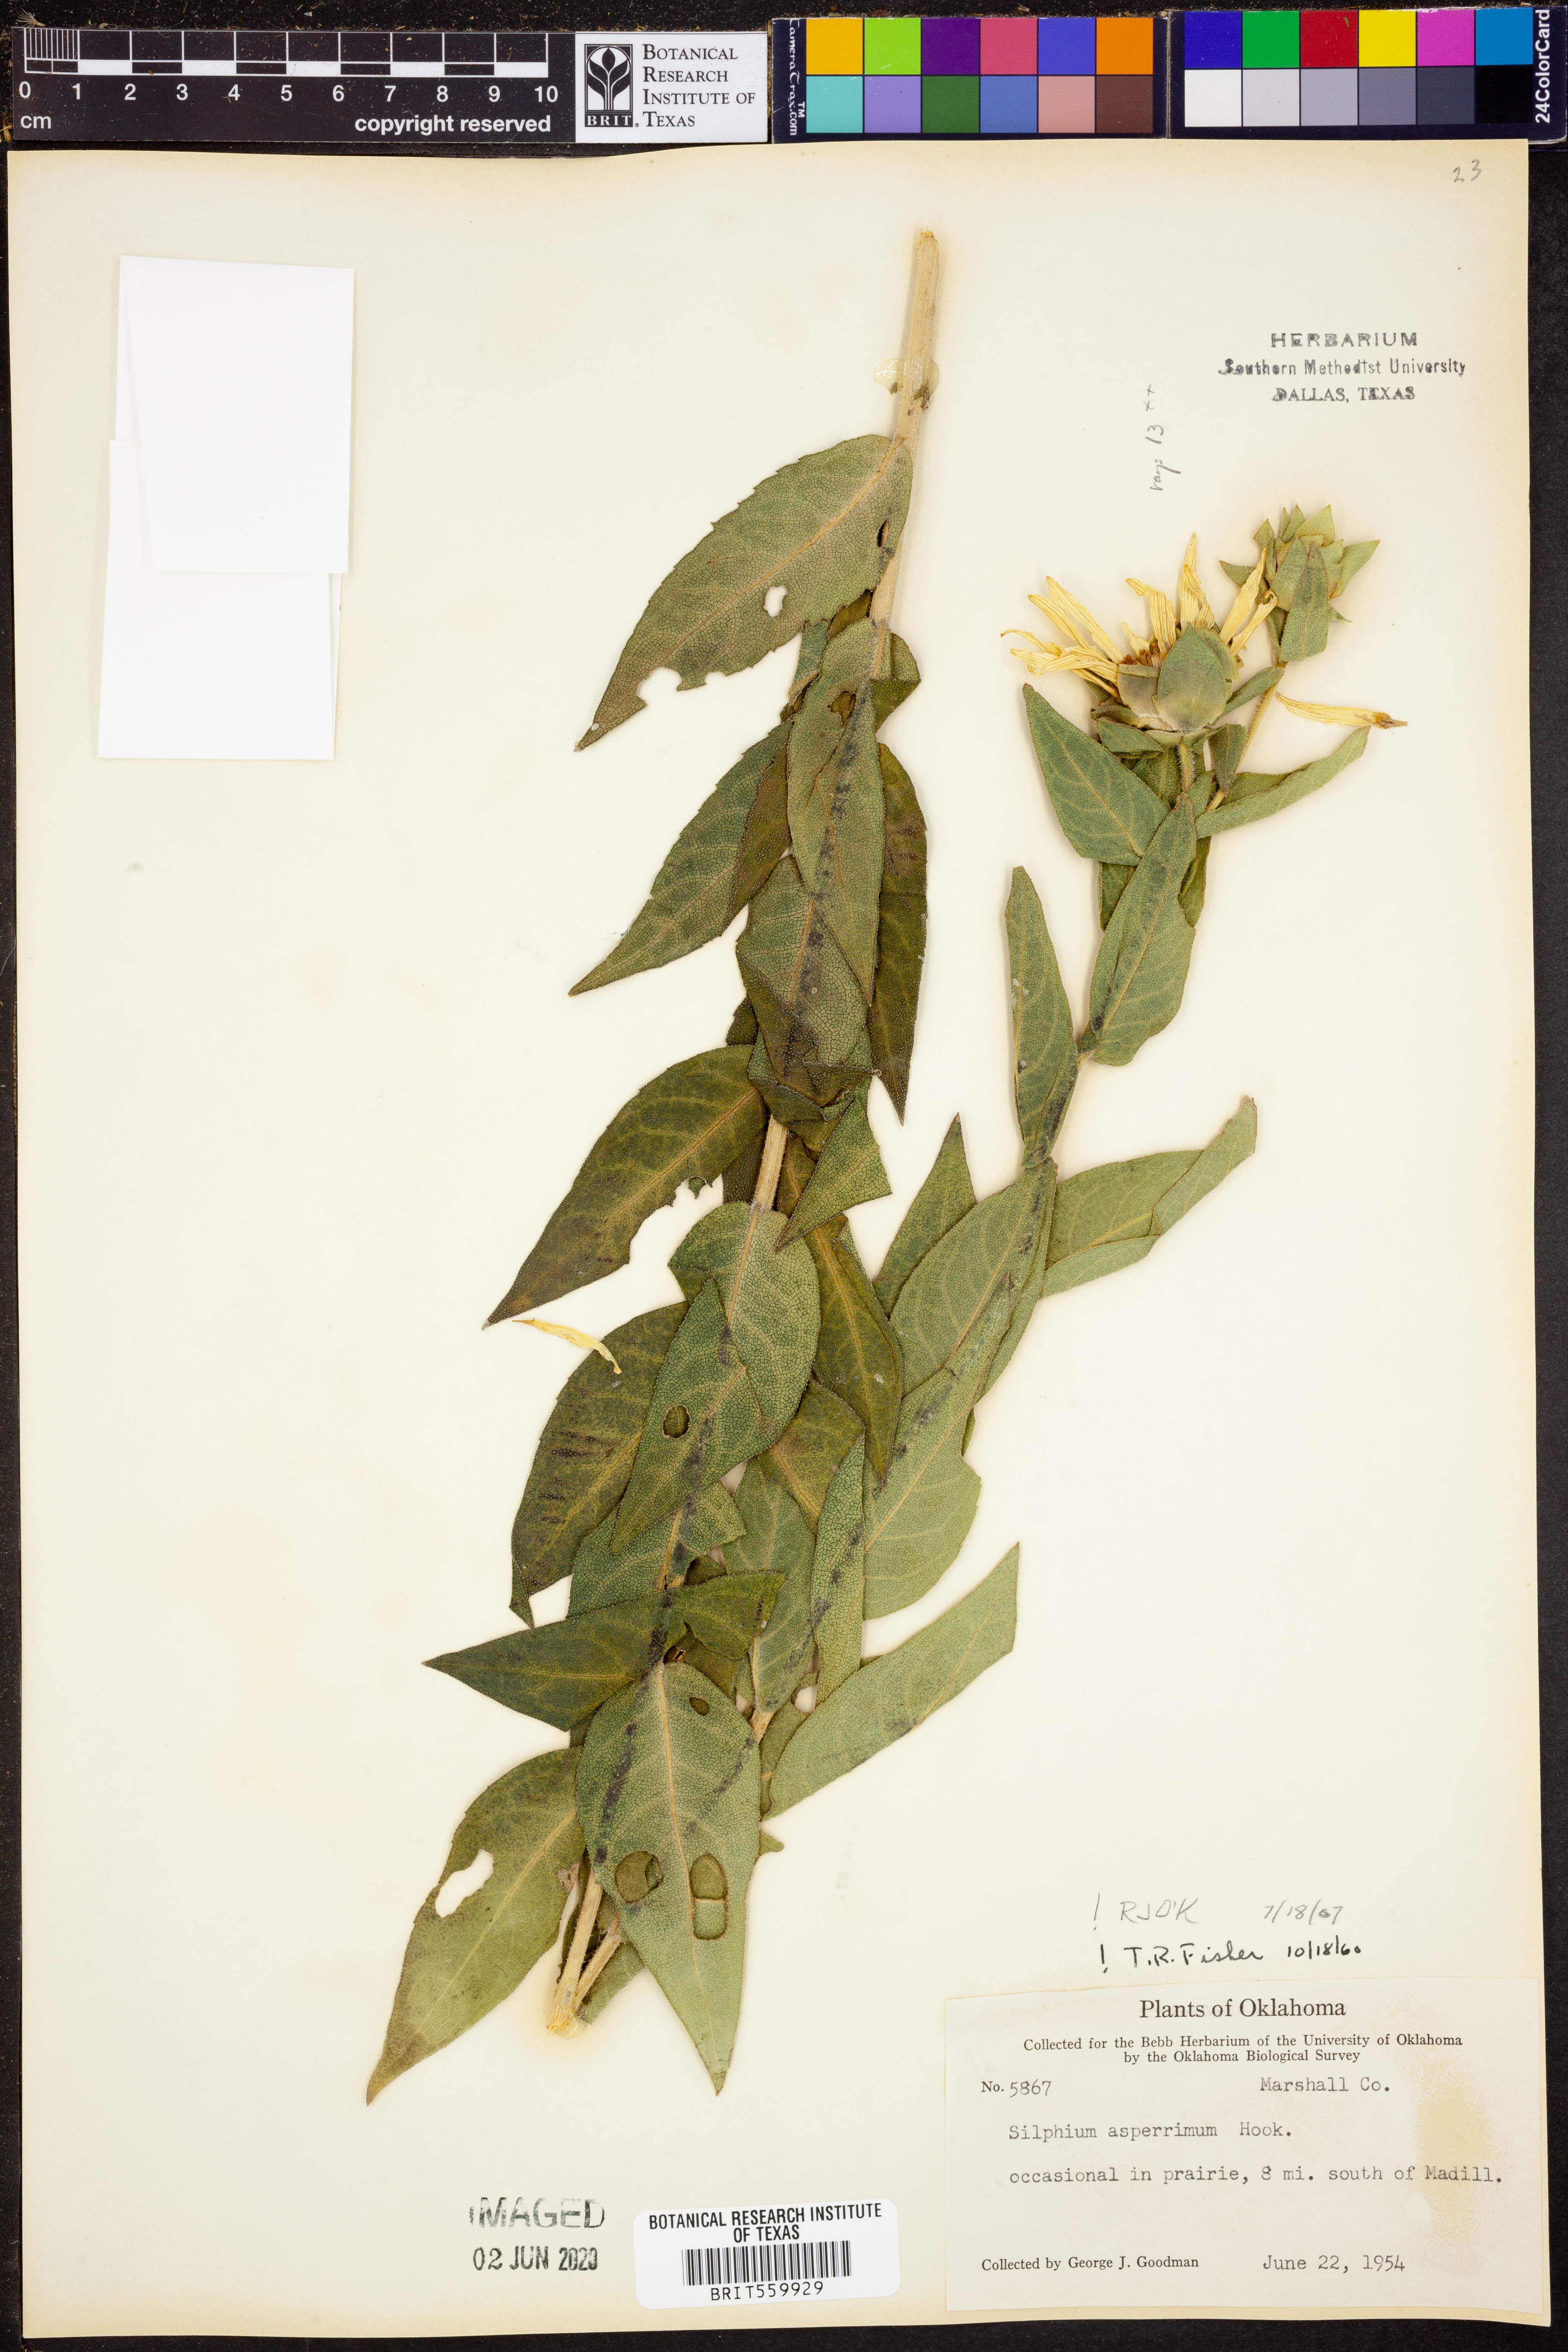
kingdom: Plantae
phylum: Tracheophyta
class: Magnoliopsida
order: Asterales
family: Asteraceae
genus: Silphium
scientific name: Silphium asperrimum
